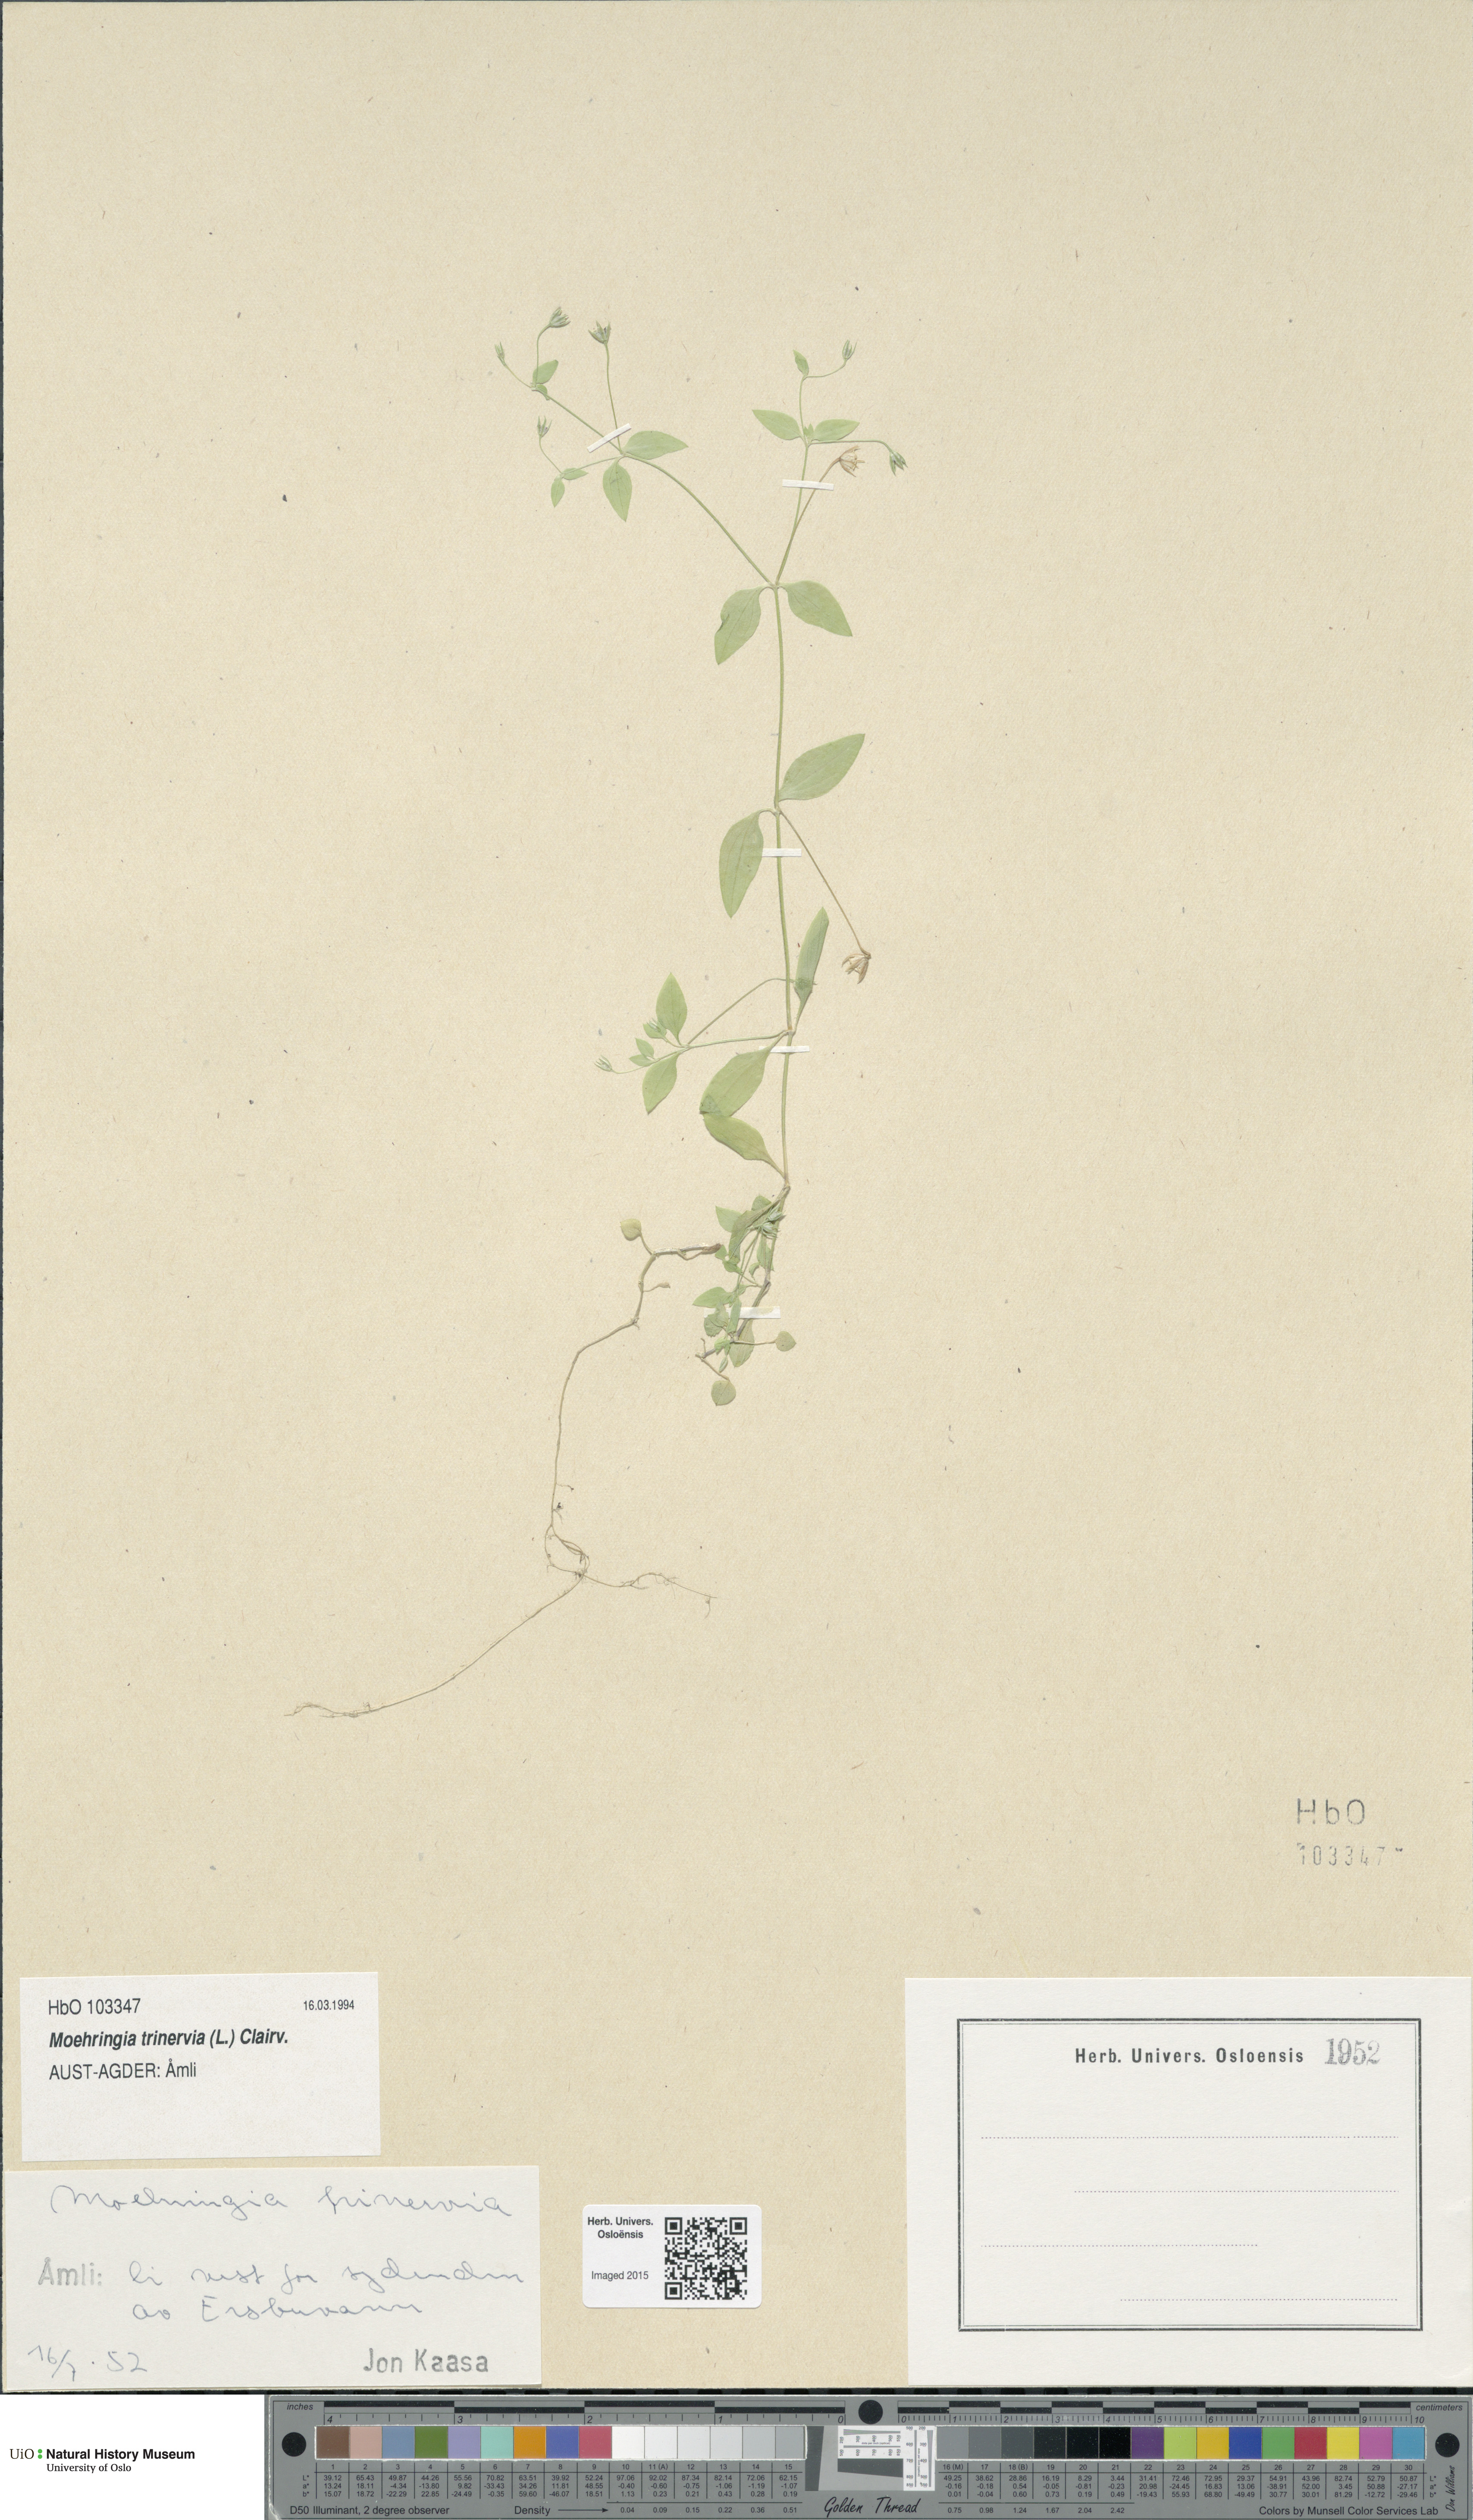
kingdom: Plantae
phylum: Tracheophyta
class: Magnoliopsida
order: Caryophyllales
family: Caryophyllaceae
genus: Moehringia
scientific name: Moehringia trinervia
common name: Three-nerved sandwort
